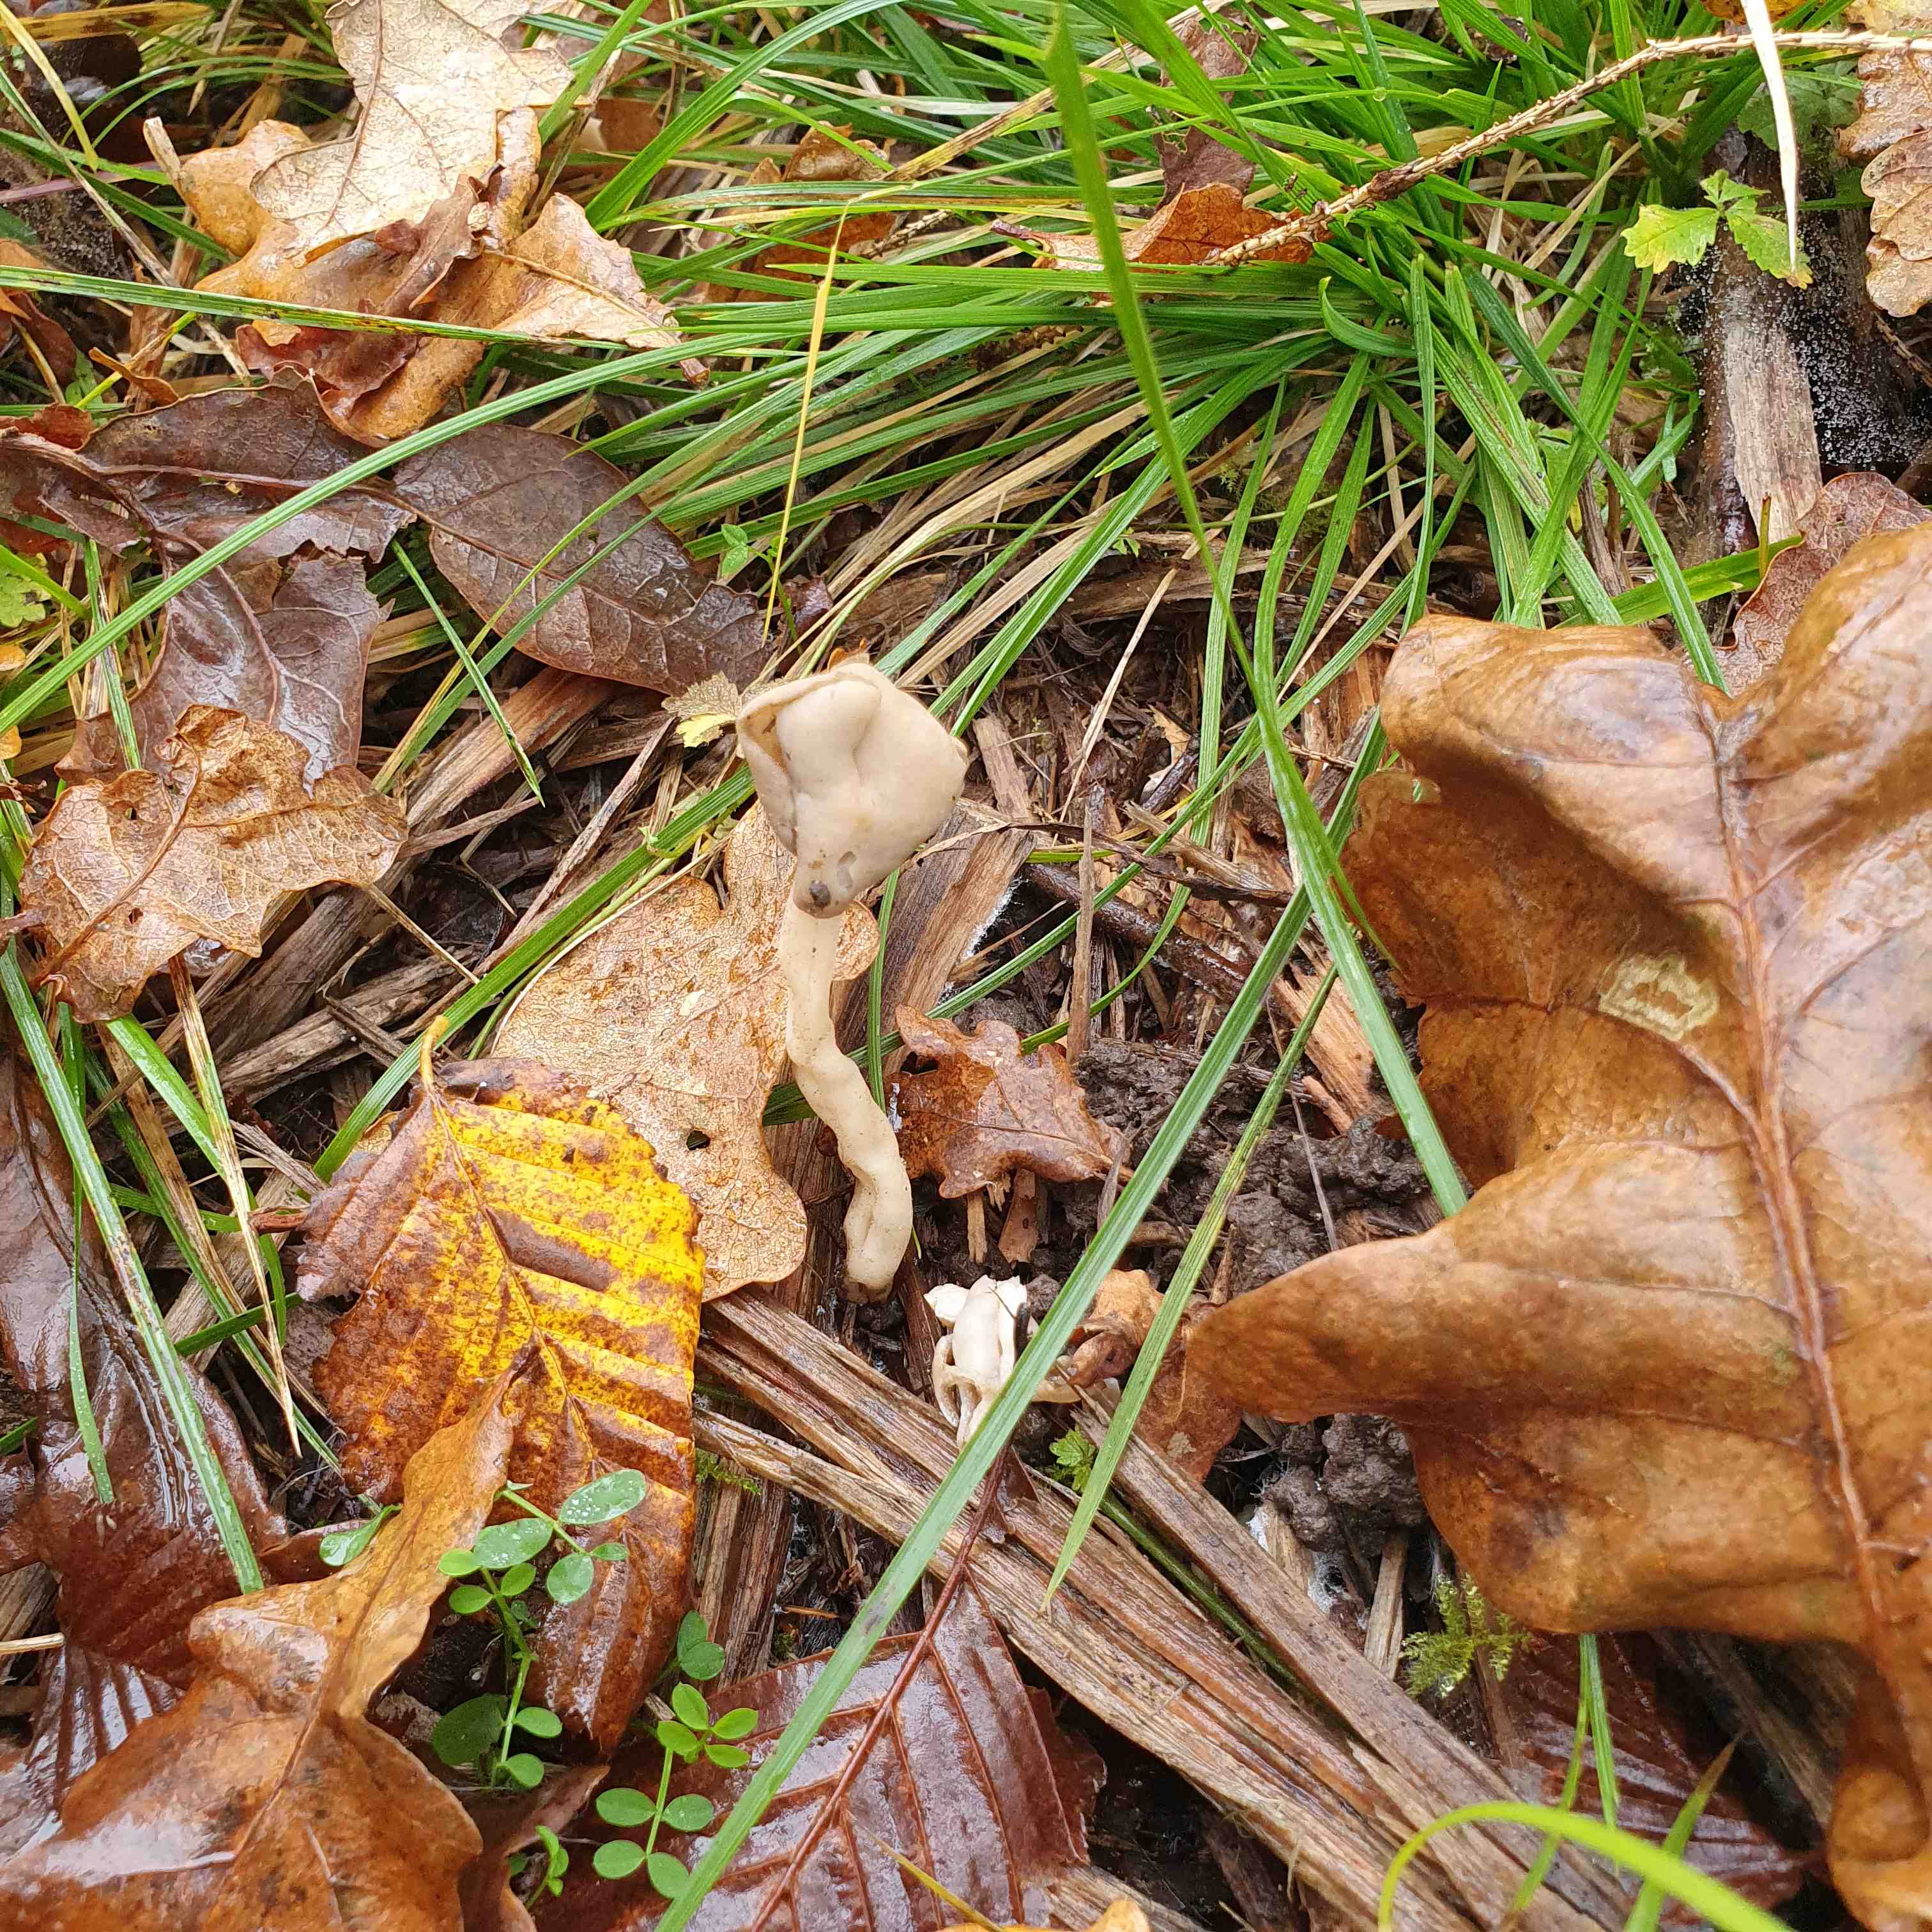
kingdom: Fungi
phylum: Ascomycota
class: Pezizomycetes
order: Pezizales
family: Helvellaceae
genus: Helvella
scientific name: Helvella elastica
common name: elastik-foldhat
